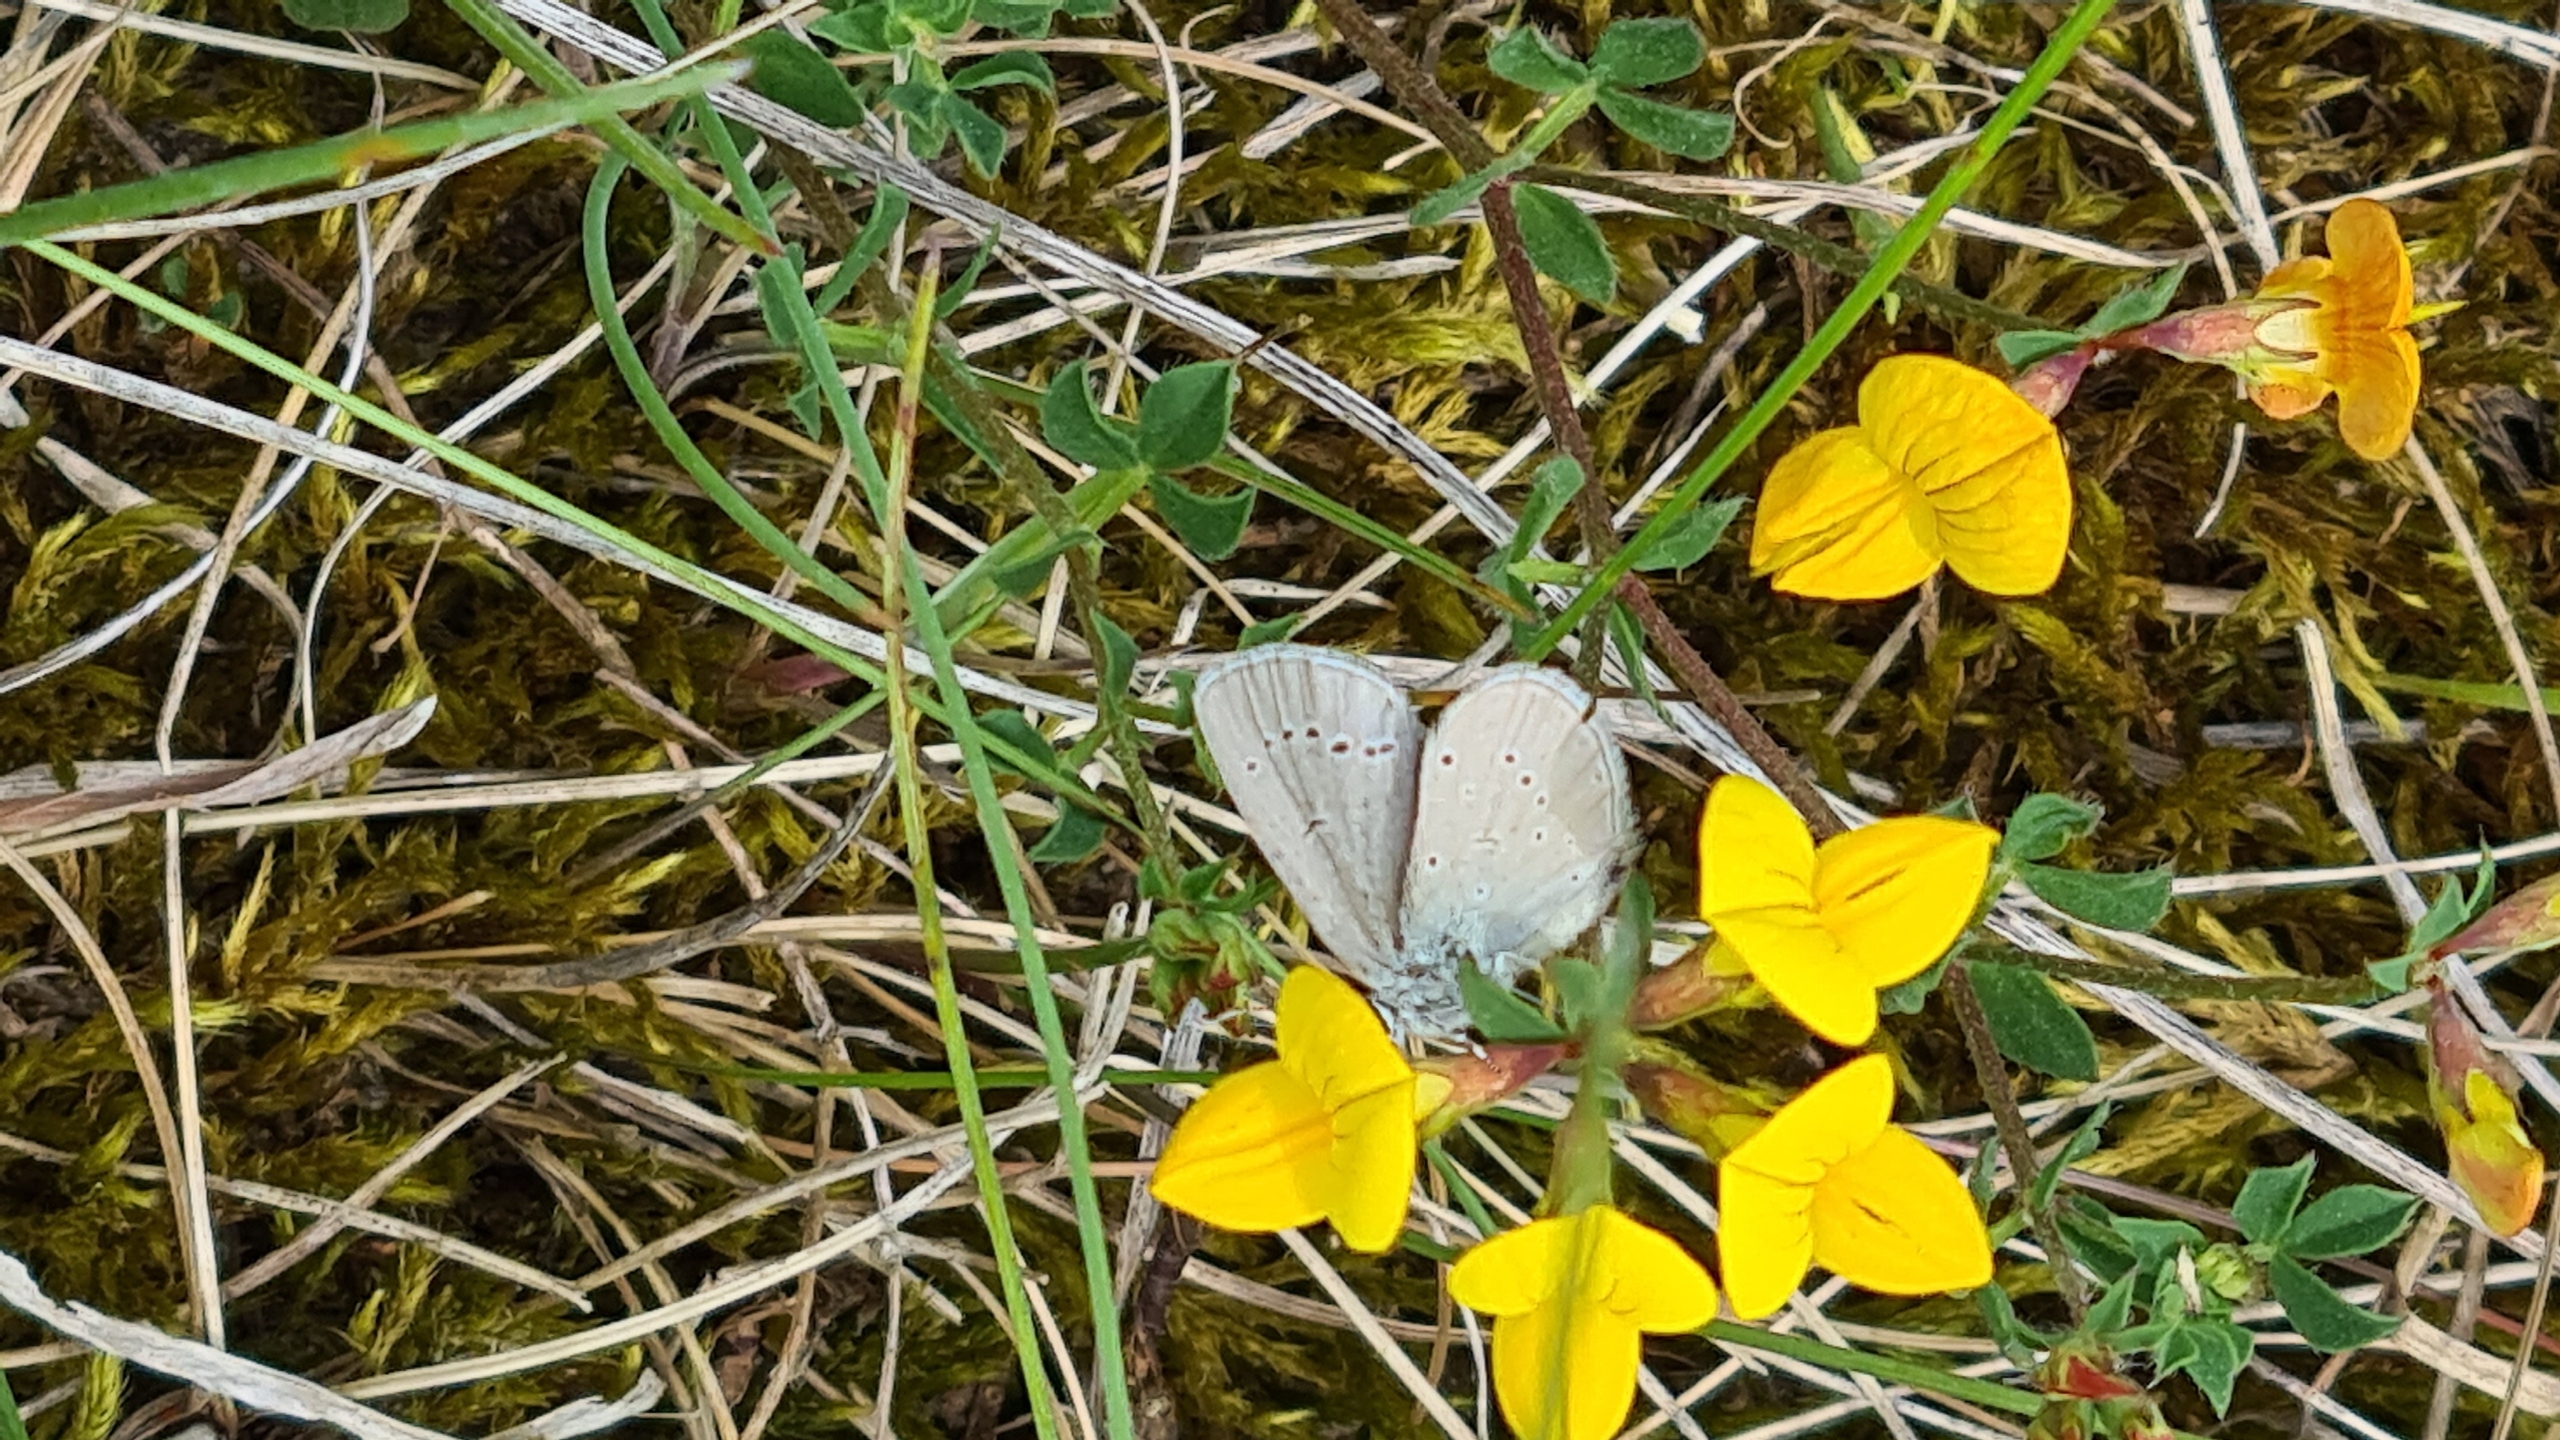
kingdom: Animalia
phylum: Arthropoda
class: Insecta
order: Lepidoptera
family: Lycaenidae
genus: Cupido
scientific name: Cupido minimus
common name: Dværgblåfugl
